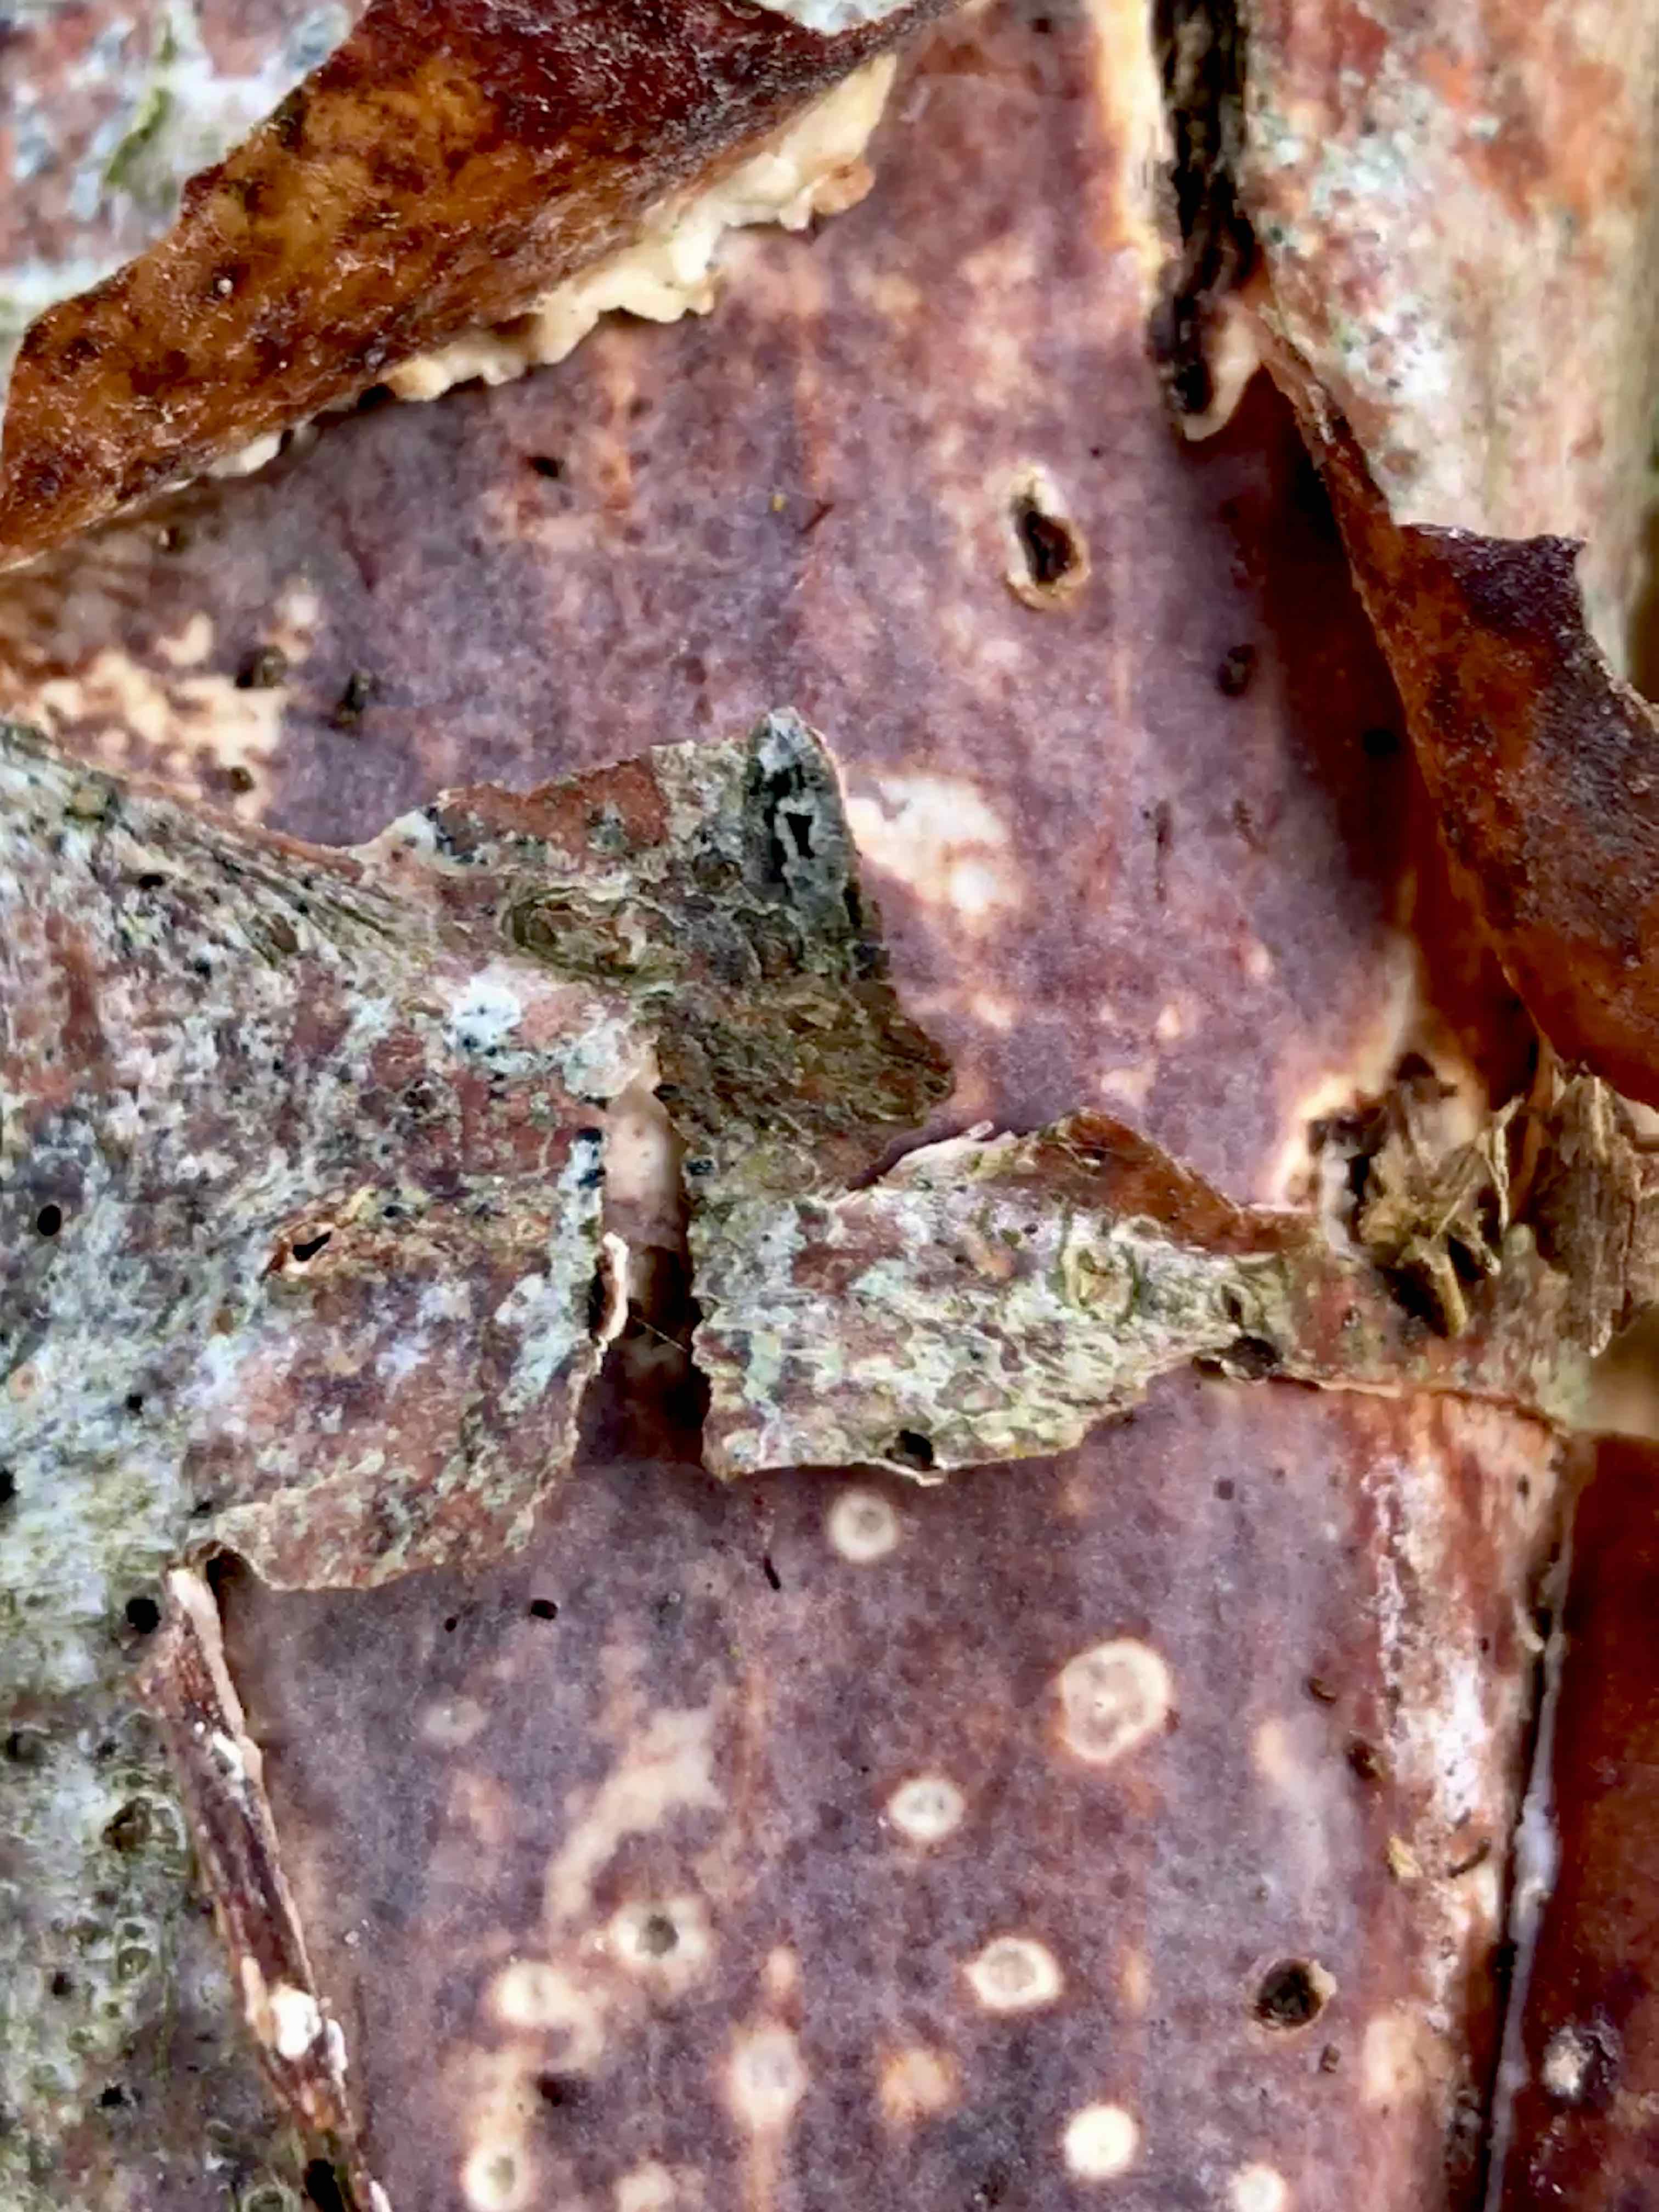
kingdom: Fungi
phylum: Basidiomycota
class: Agaricomycetes
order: Corticiales
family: Vuilleminiaceae
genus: Vuilleminia
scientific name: Vuilleminia comedens
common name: almindelig barksprænger
